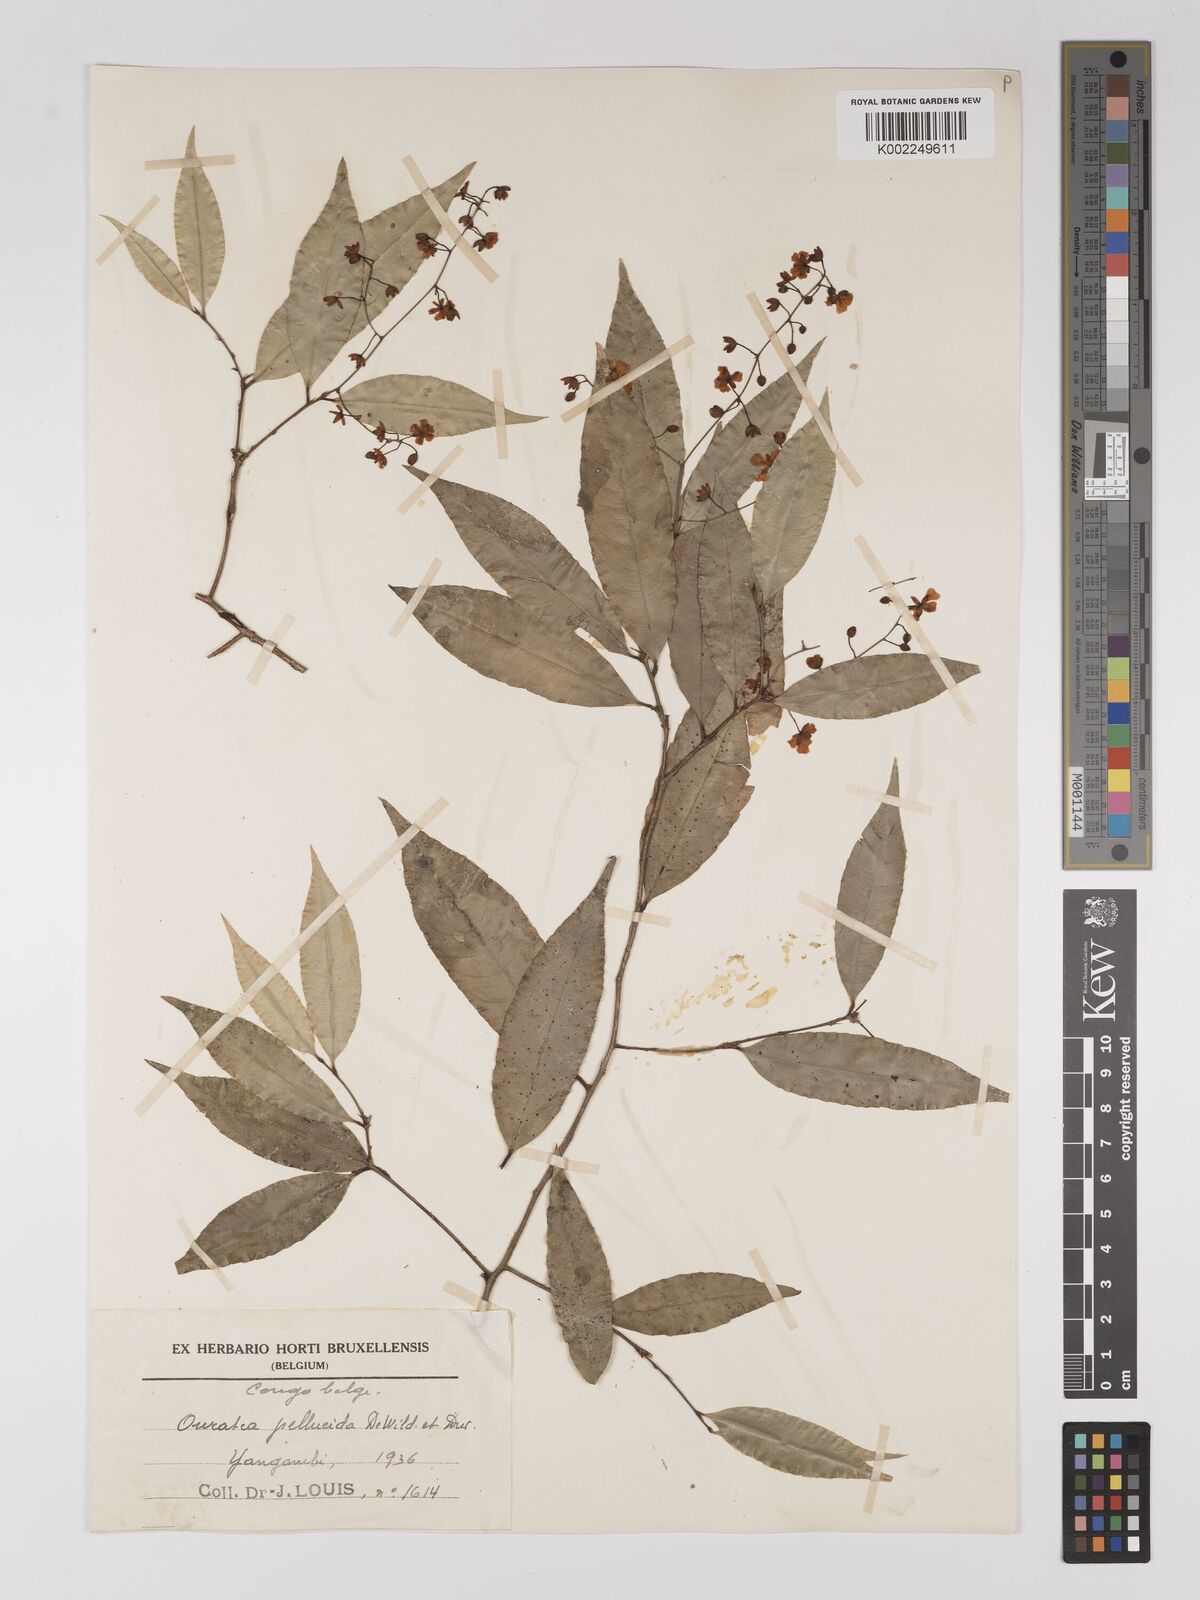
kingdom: Plantae
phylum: Tracheophyta
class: Magnoliopsida
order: Malpighiales
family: Ochnaceae
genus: Campylospermum
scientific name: Campylospermum reticulatum
